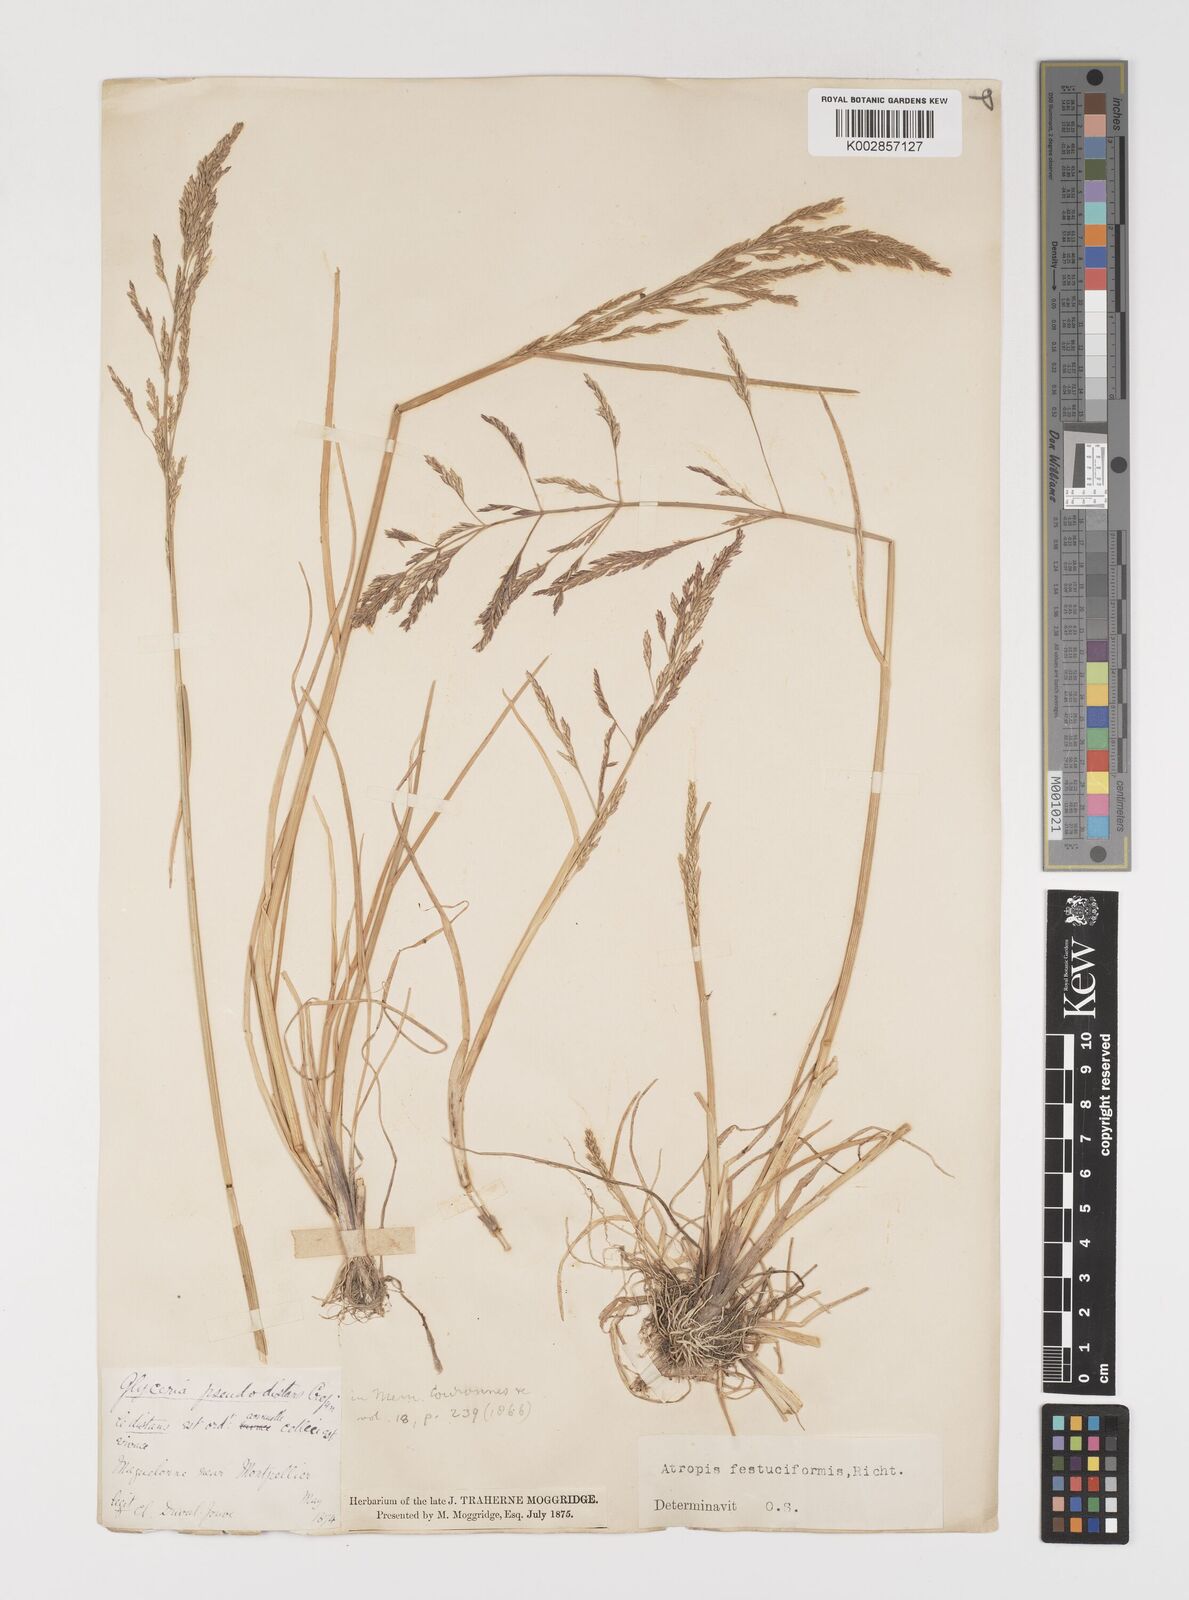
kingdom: Plantae
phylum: Tracheophyta
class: Liliopsida
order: Poales
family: Poaceae
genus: Puccinellia
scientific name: Puccinellia festuciformis
